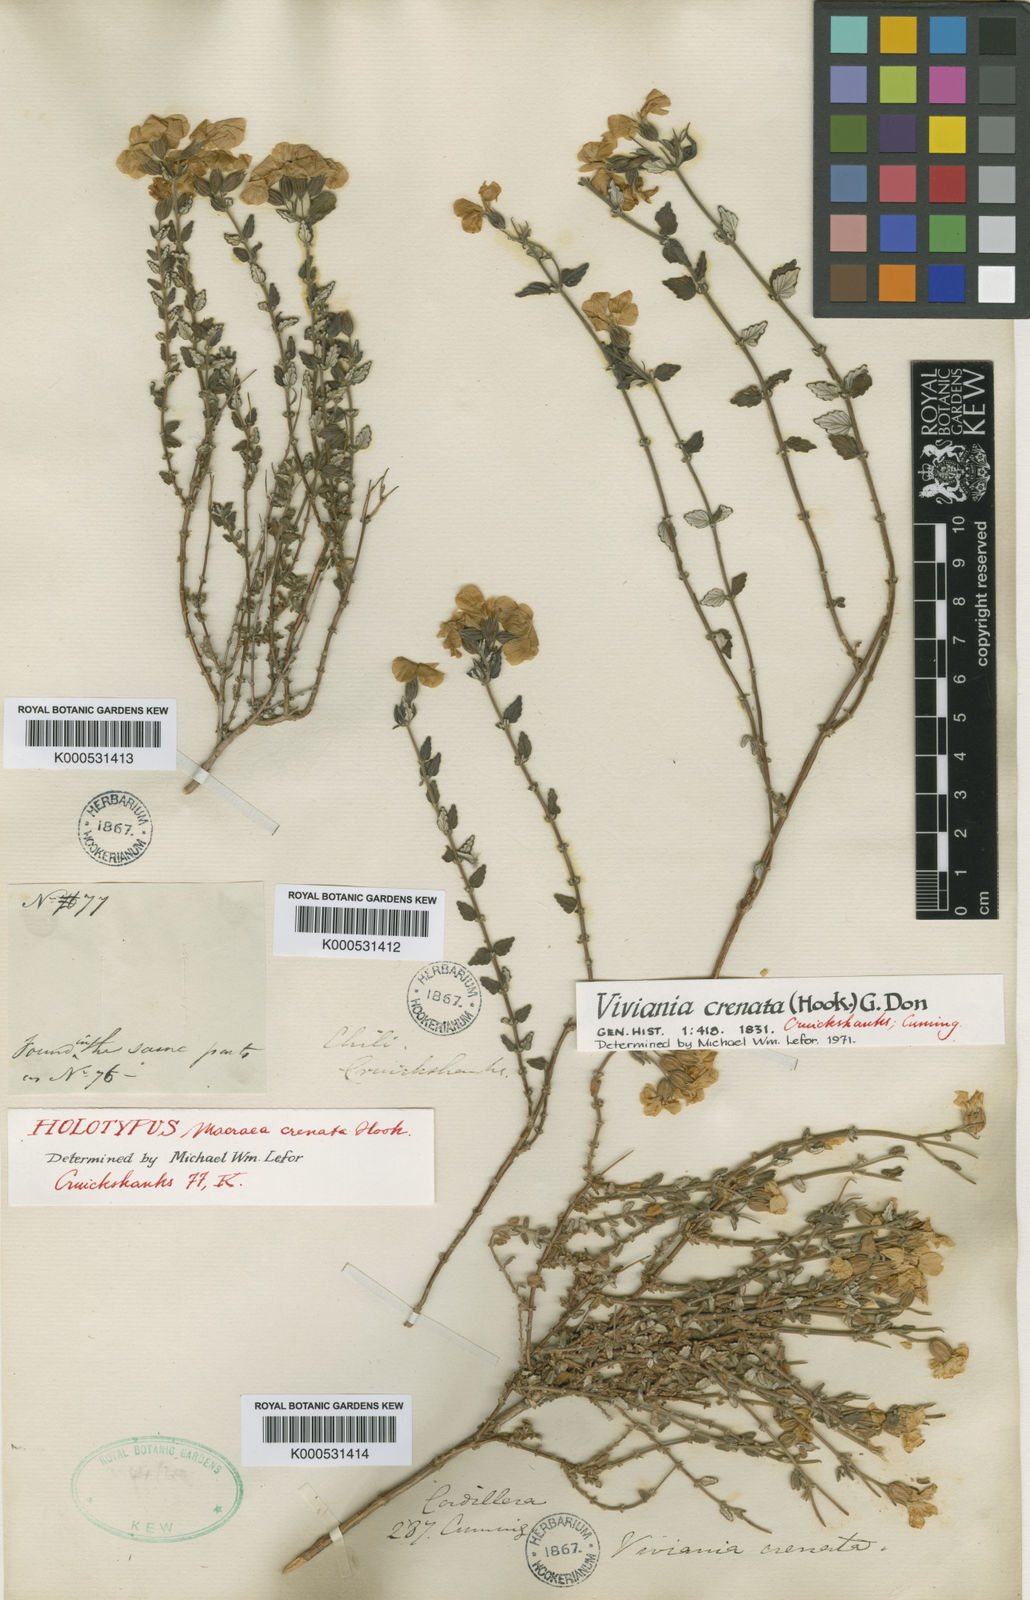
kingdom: Plantae
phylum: Tracheophyta
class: Magnoliopsida
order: Geraniales
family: Vivianiaceae
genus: Viviania
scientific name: Viviania crenata
